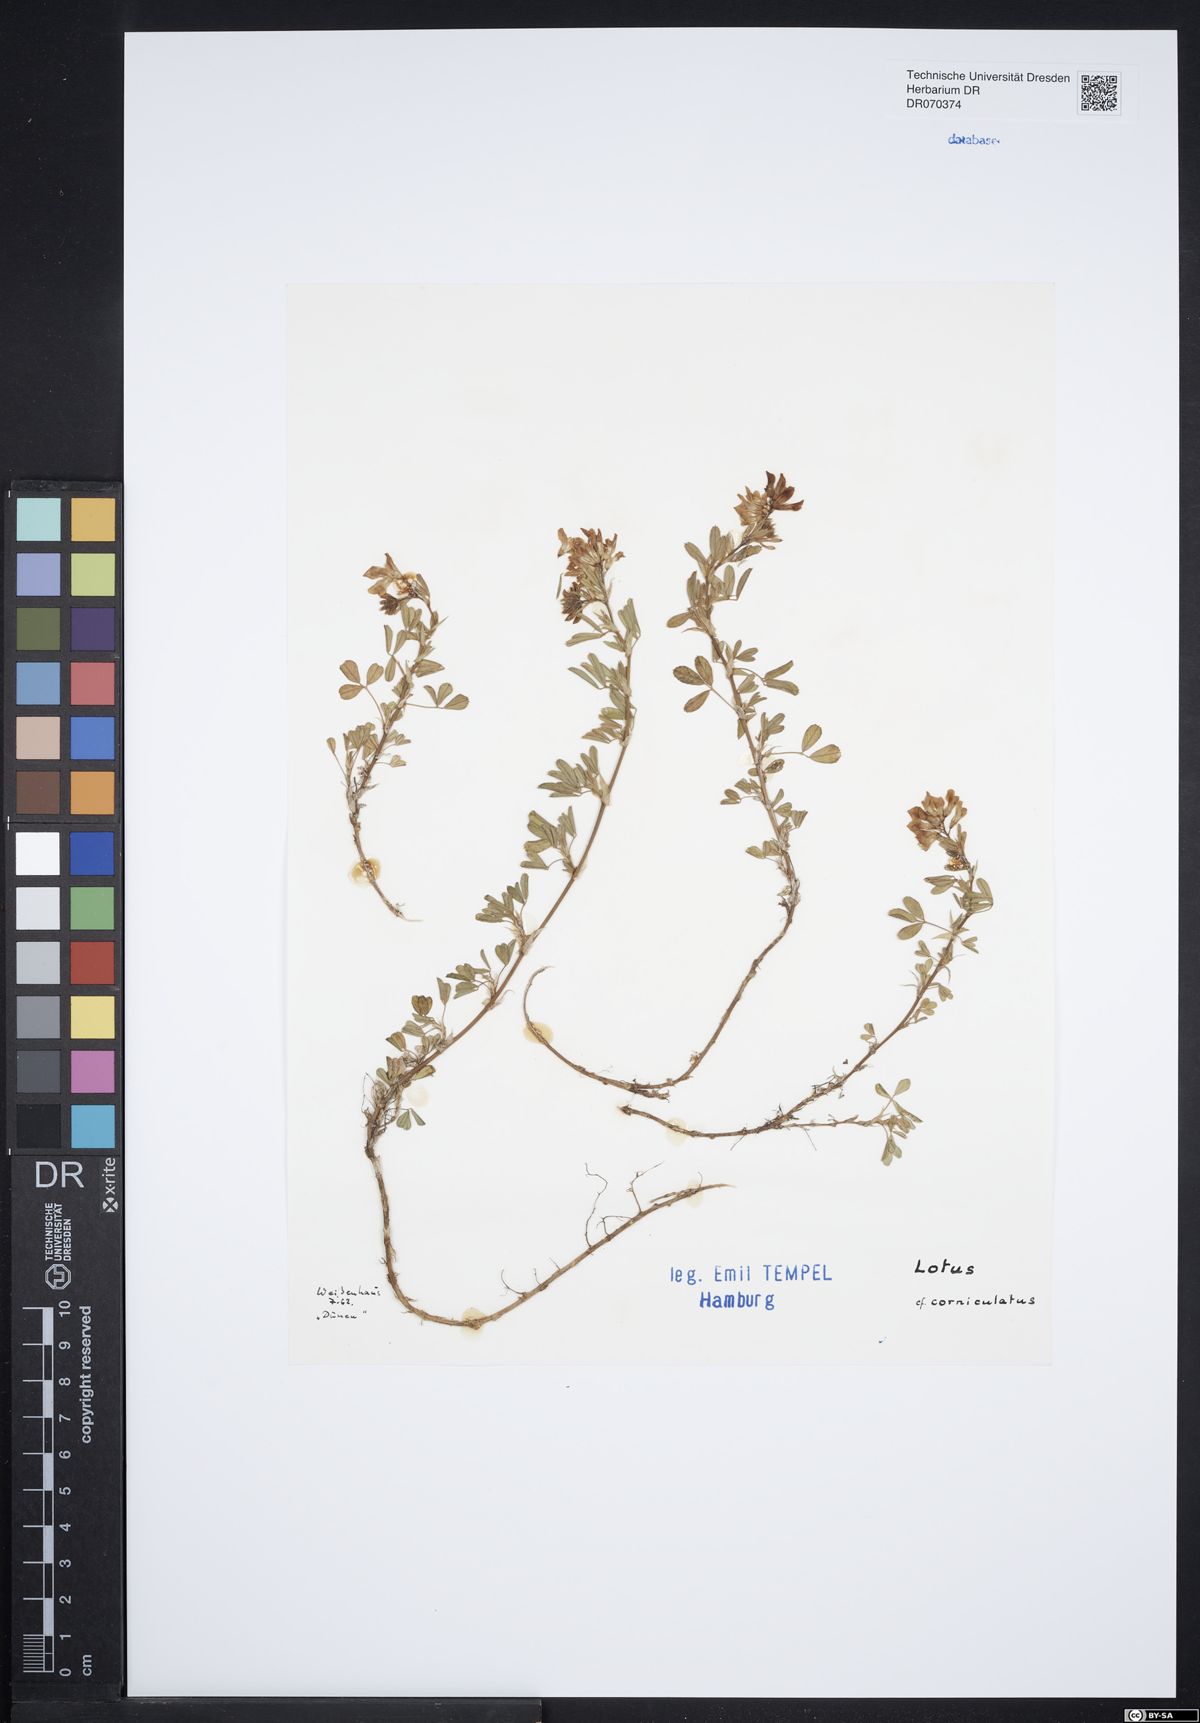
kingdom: Plantae
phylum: Tracheophyta
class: Magnoliopsida
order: Fabales
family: Fabaceae
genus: Lotus
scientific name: Lotus corniculatus
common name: Common bird's-foot-trefoil
